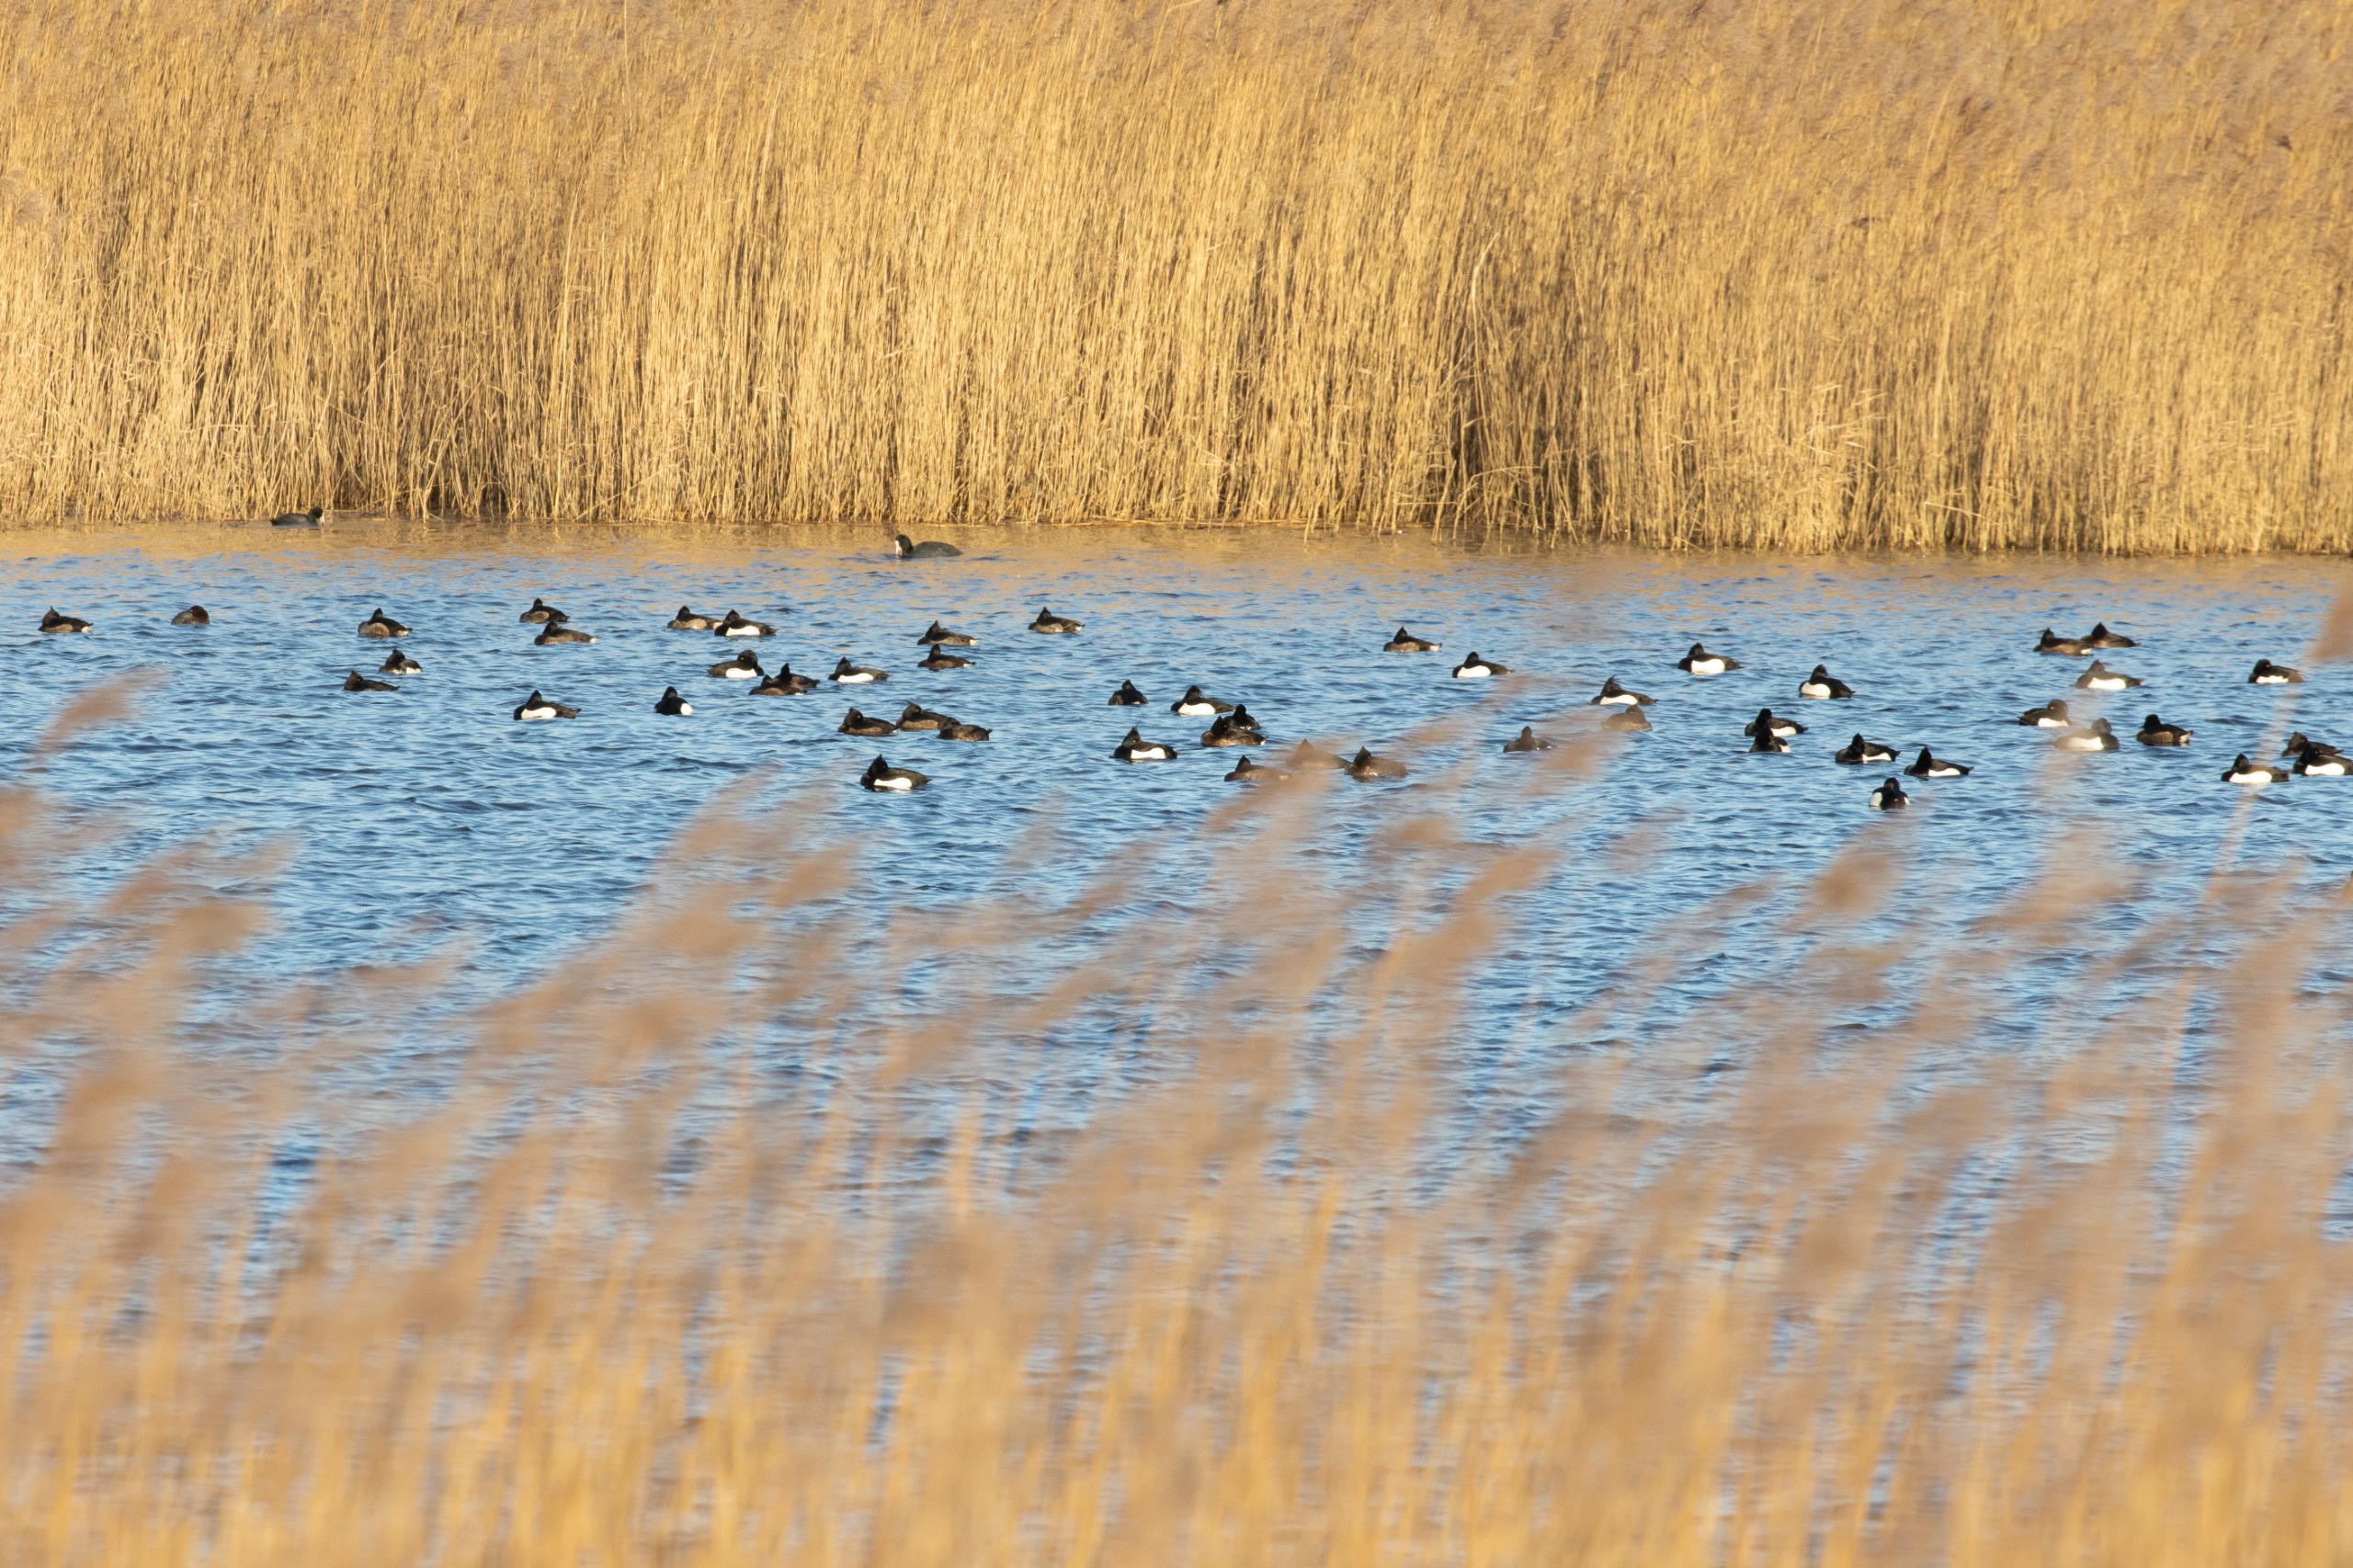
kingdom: Animalia
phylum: Chordata
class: Aves
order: Anseriformes
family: Anatidae
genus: Aythya
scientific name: Aythya fuligula
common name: Troldand
